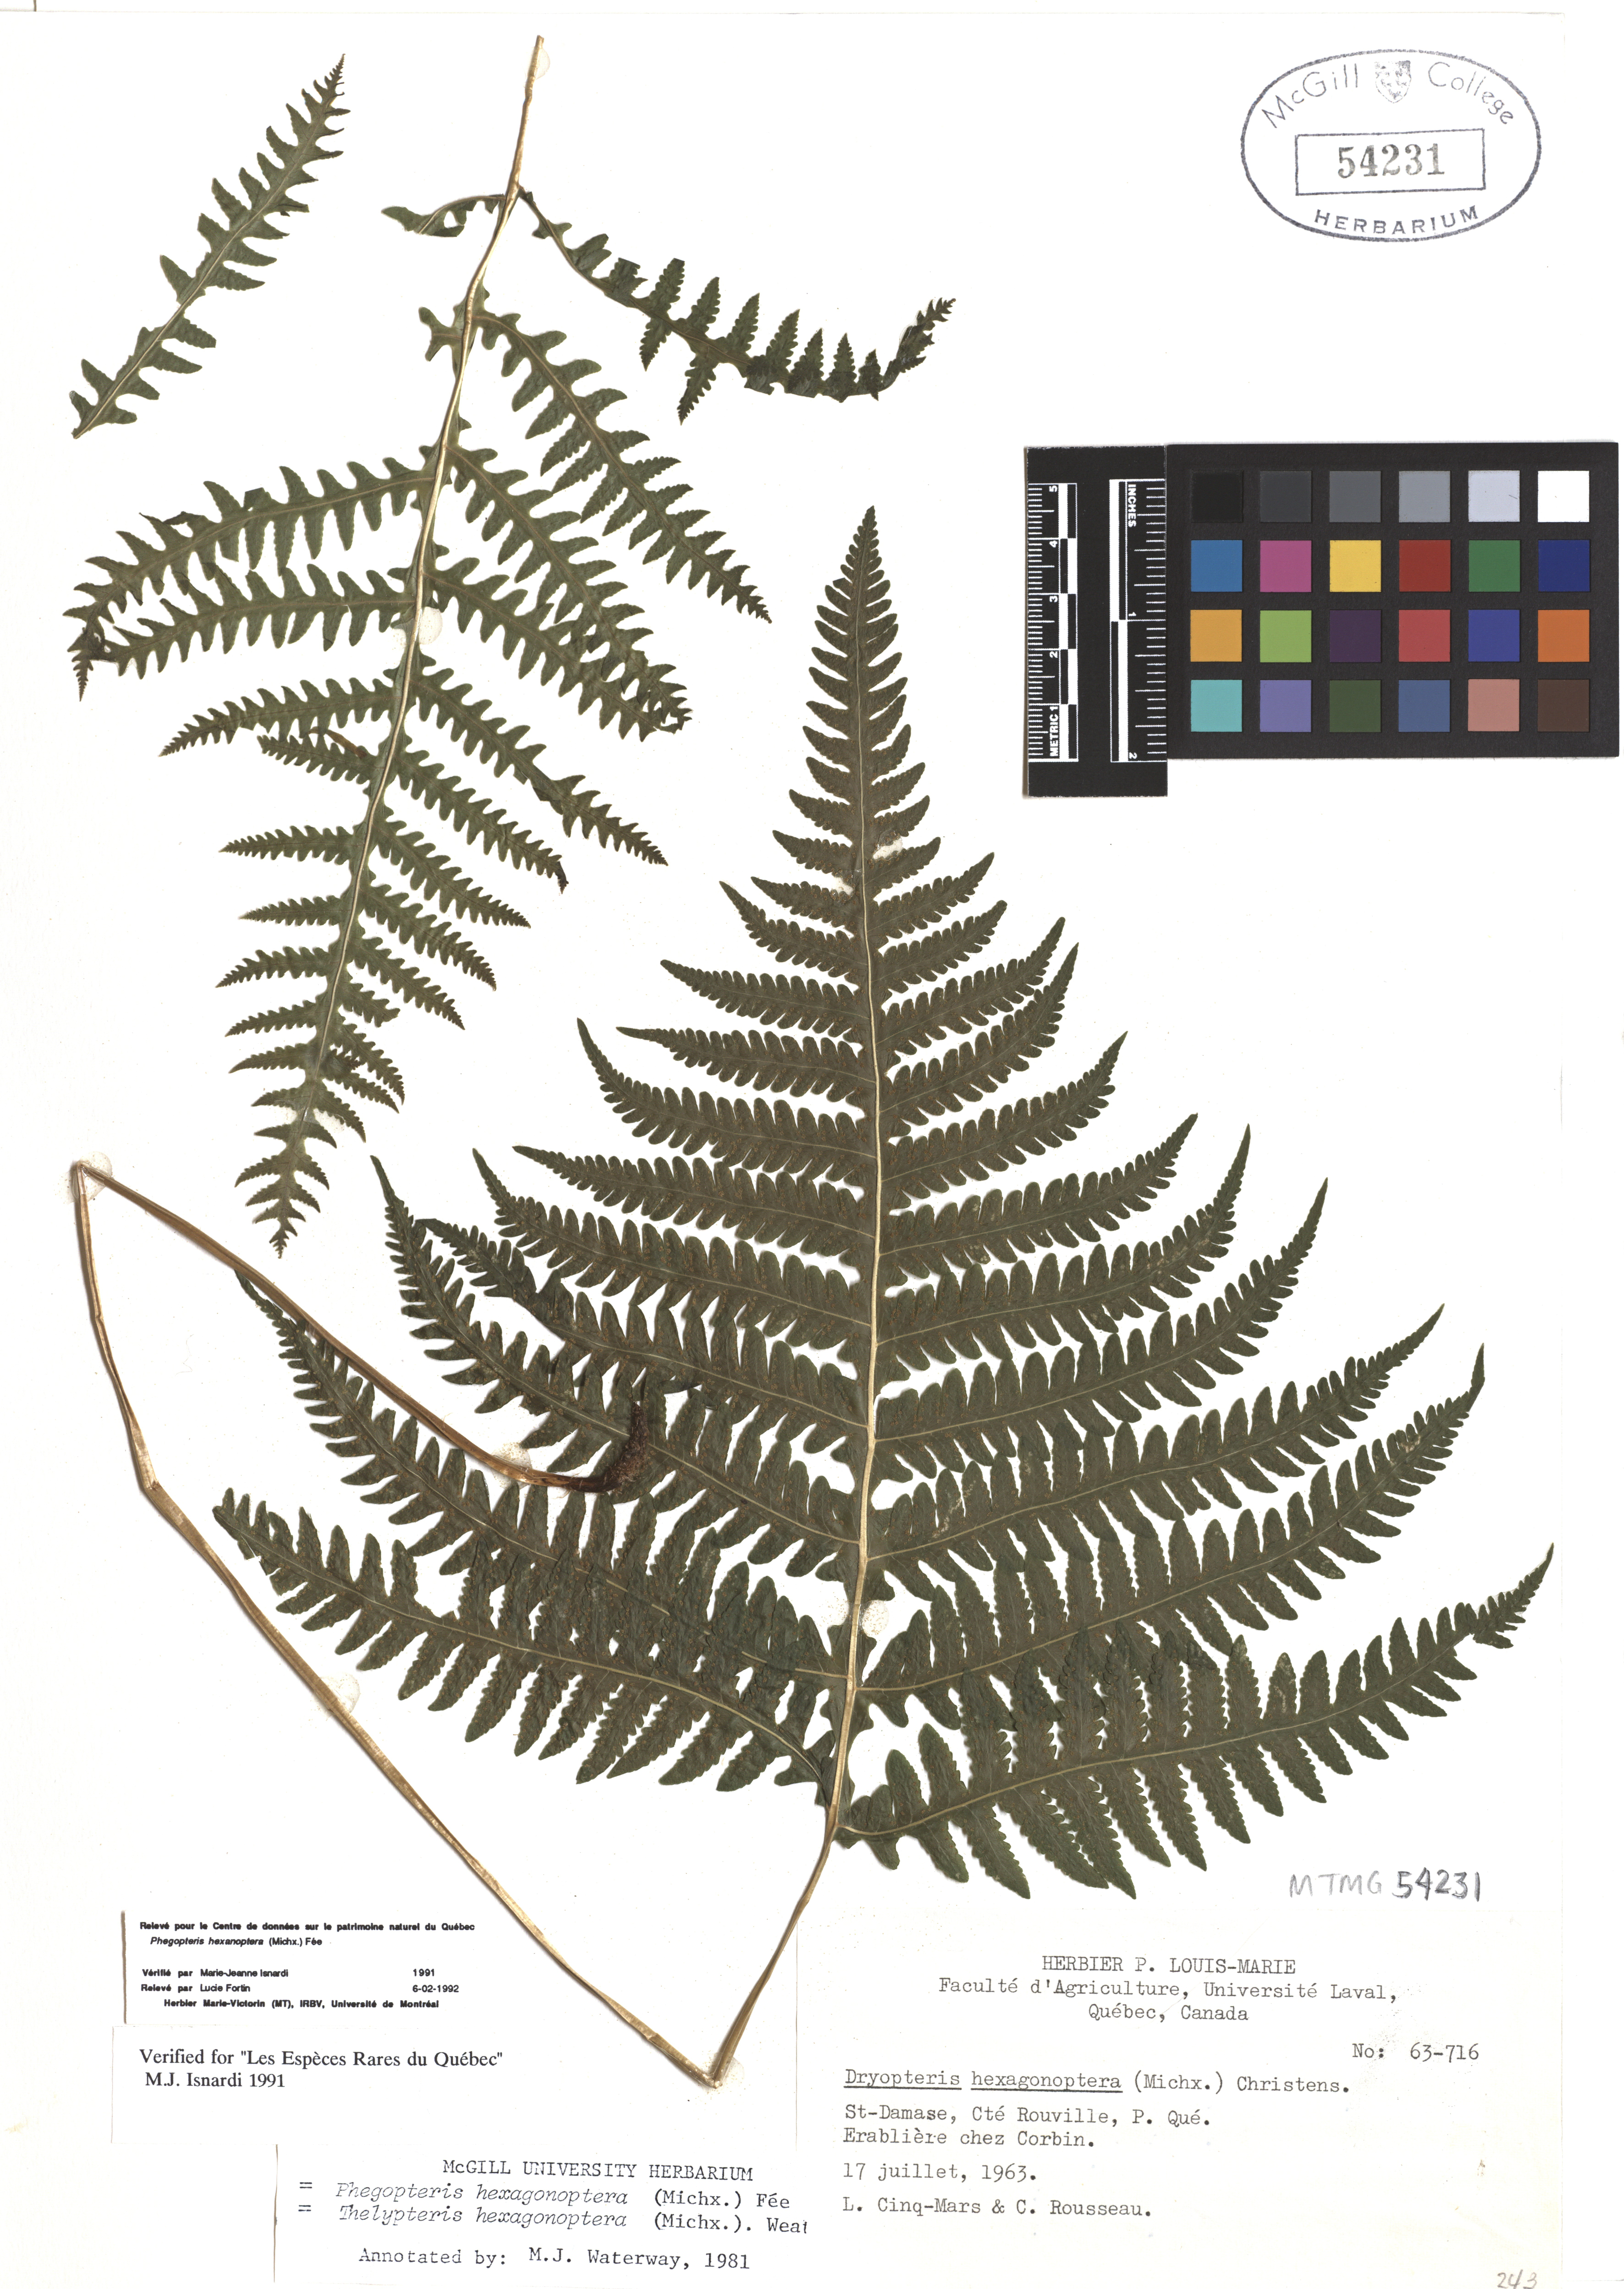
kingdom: Plantae
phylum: Tracheophyta
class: Polypodiopsida
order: Polypodiales
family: Thelypteridaceae
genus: Phegopteris
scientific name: Phegopteris hexagonoptera
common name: Broad beech fern
